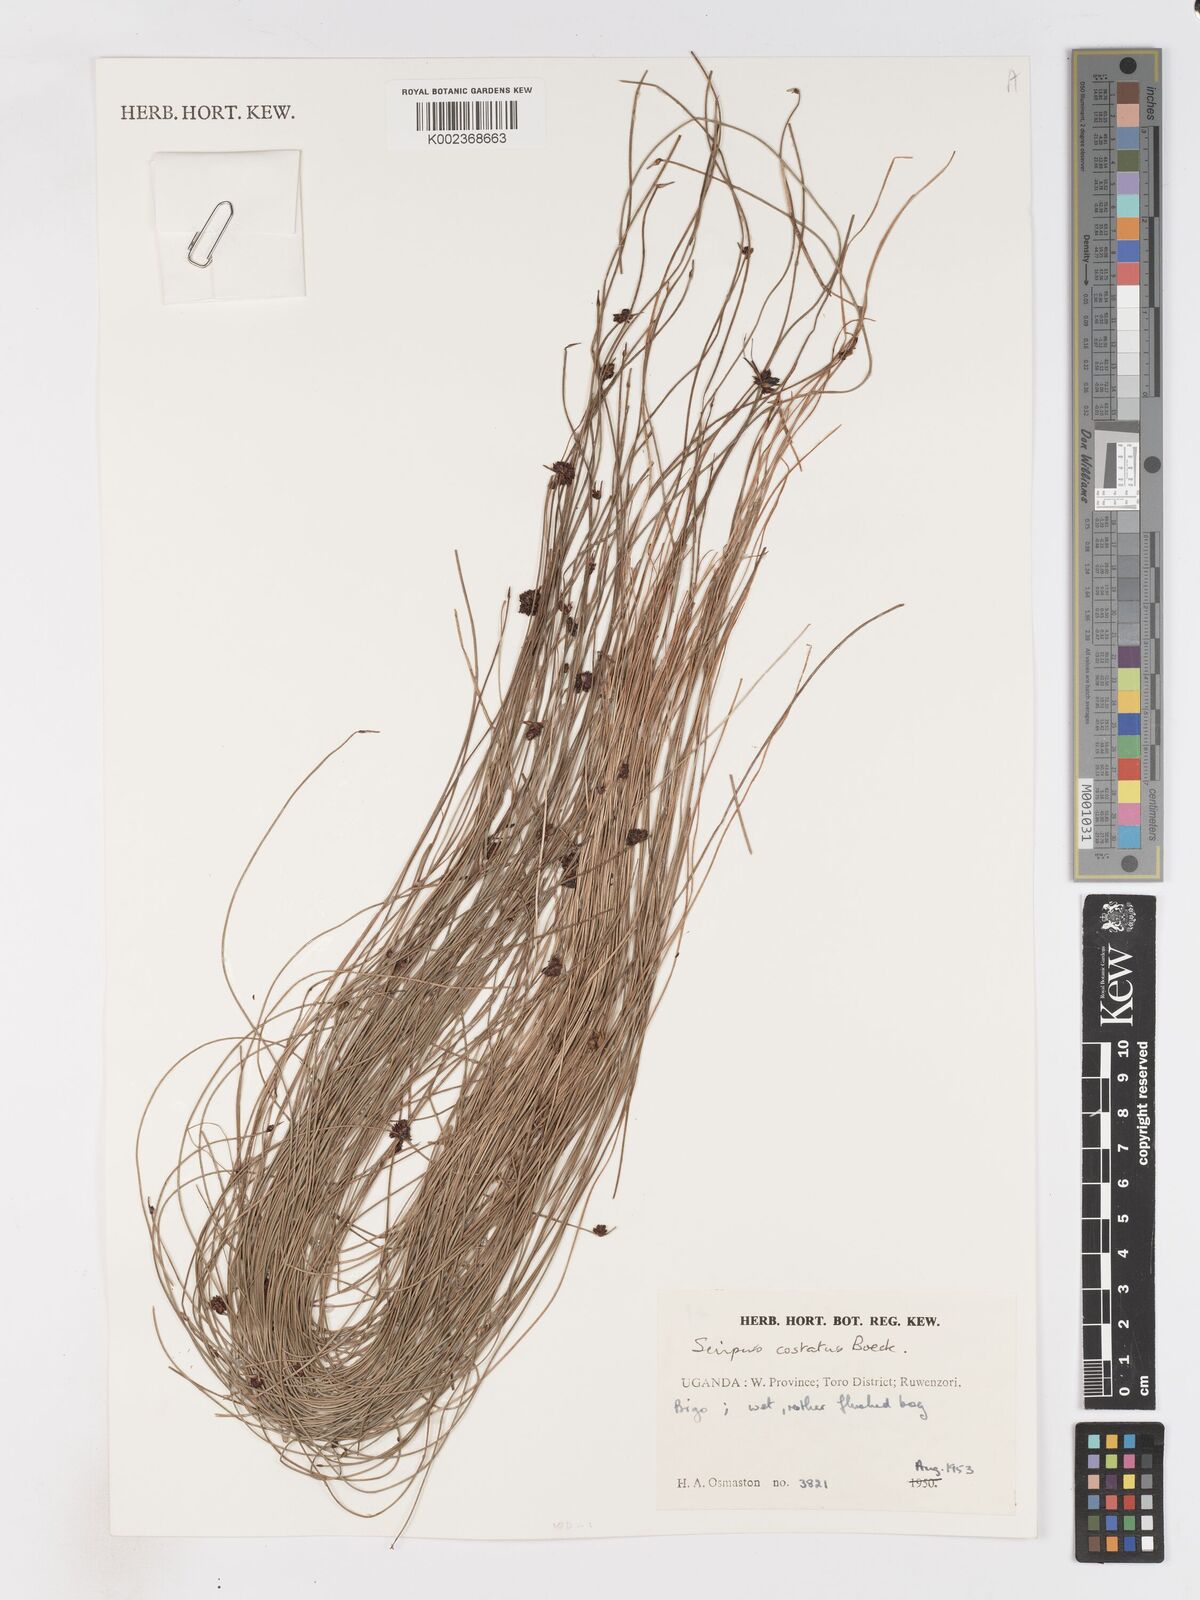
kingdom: Plantae
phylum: Tracheophyta
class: Liliopsida
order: Poales
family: Cyperaceae
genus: Isolepis
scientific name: Isolepis costata
